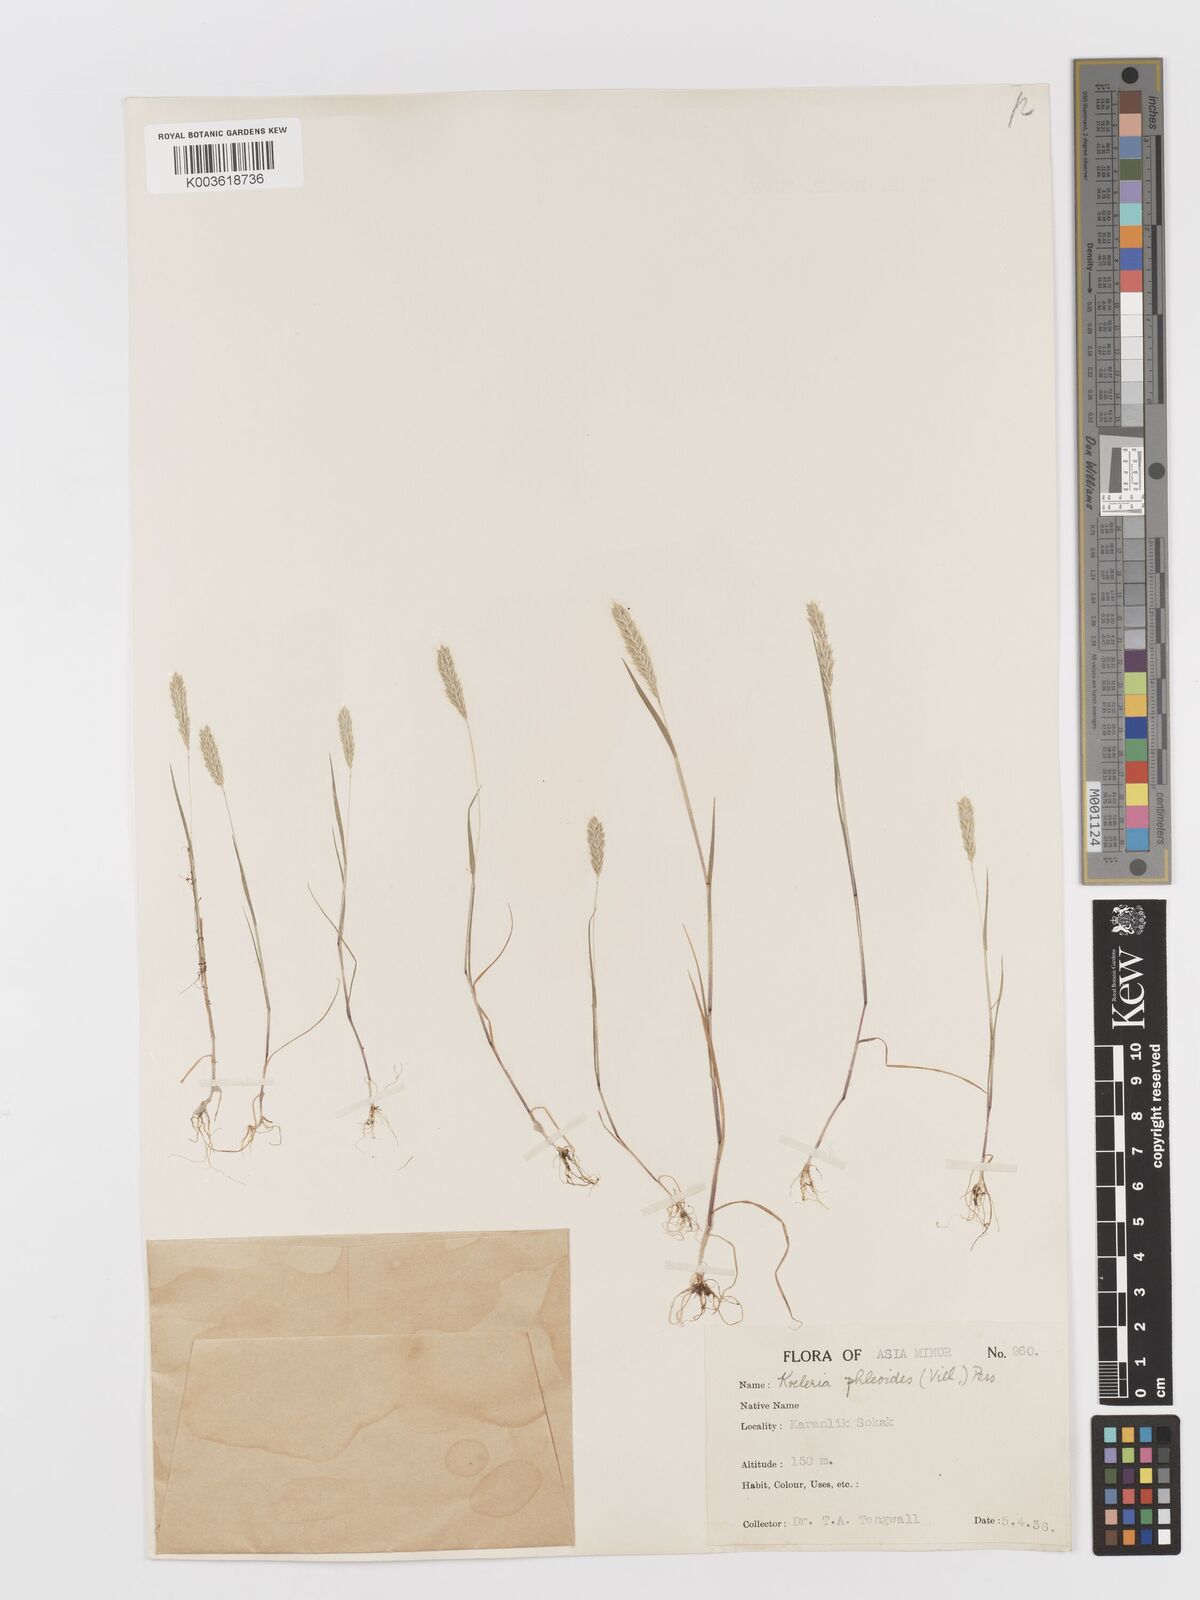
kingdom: Plantae
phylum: Tracheophyta
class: Liliopsida
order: Poales
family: Poaceae
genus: Rostraria
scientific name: Rostraria cristata
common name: Mediterranean hair-grass
